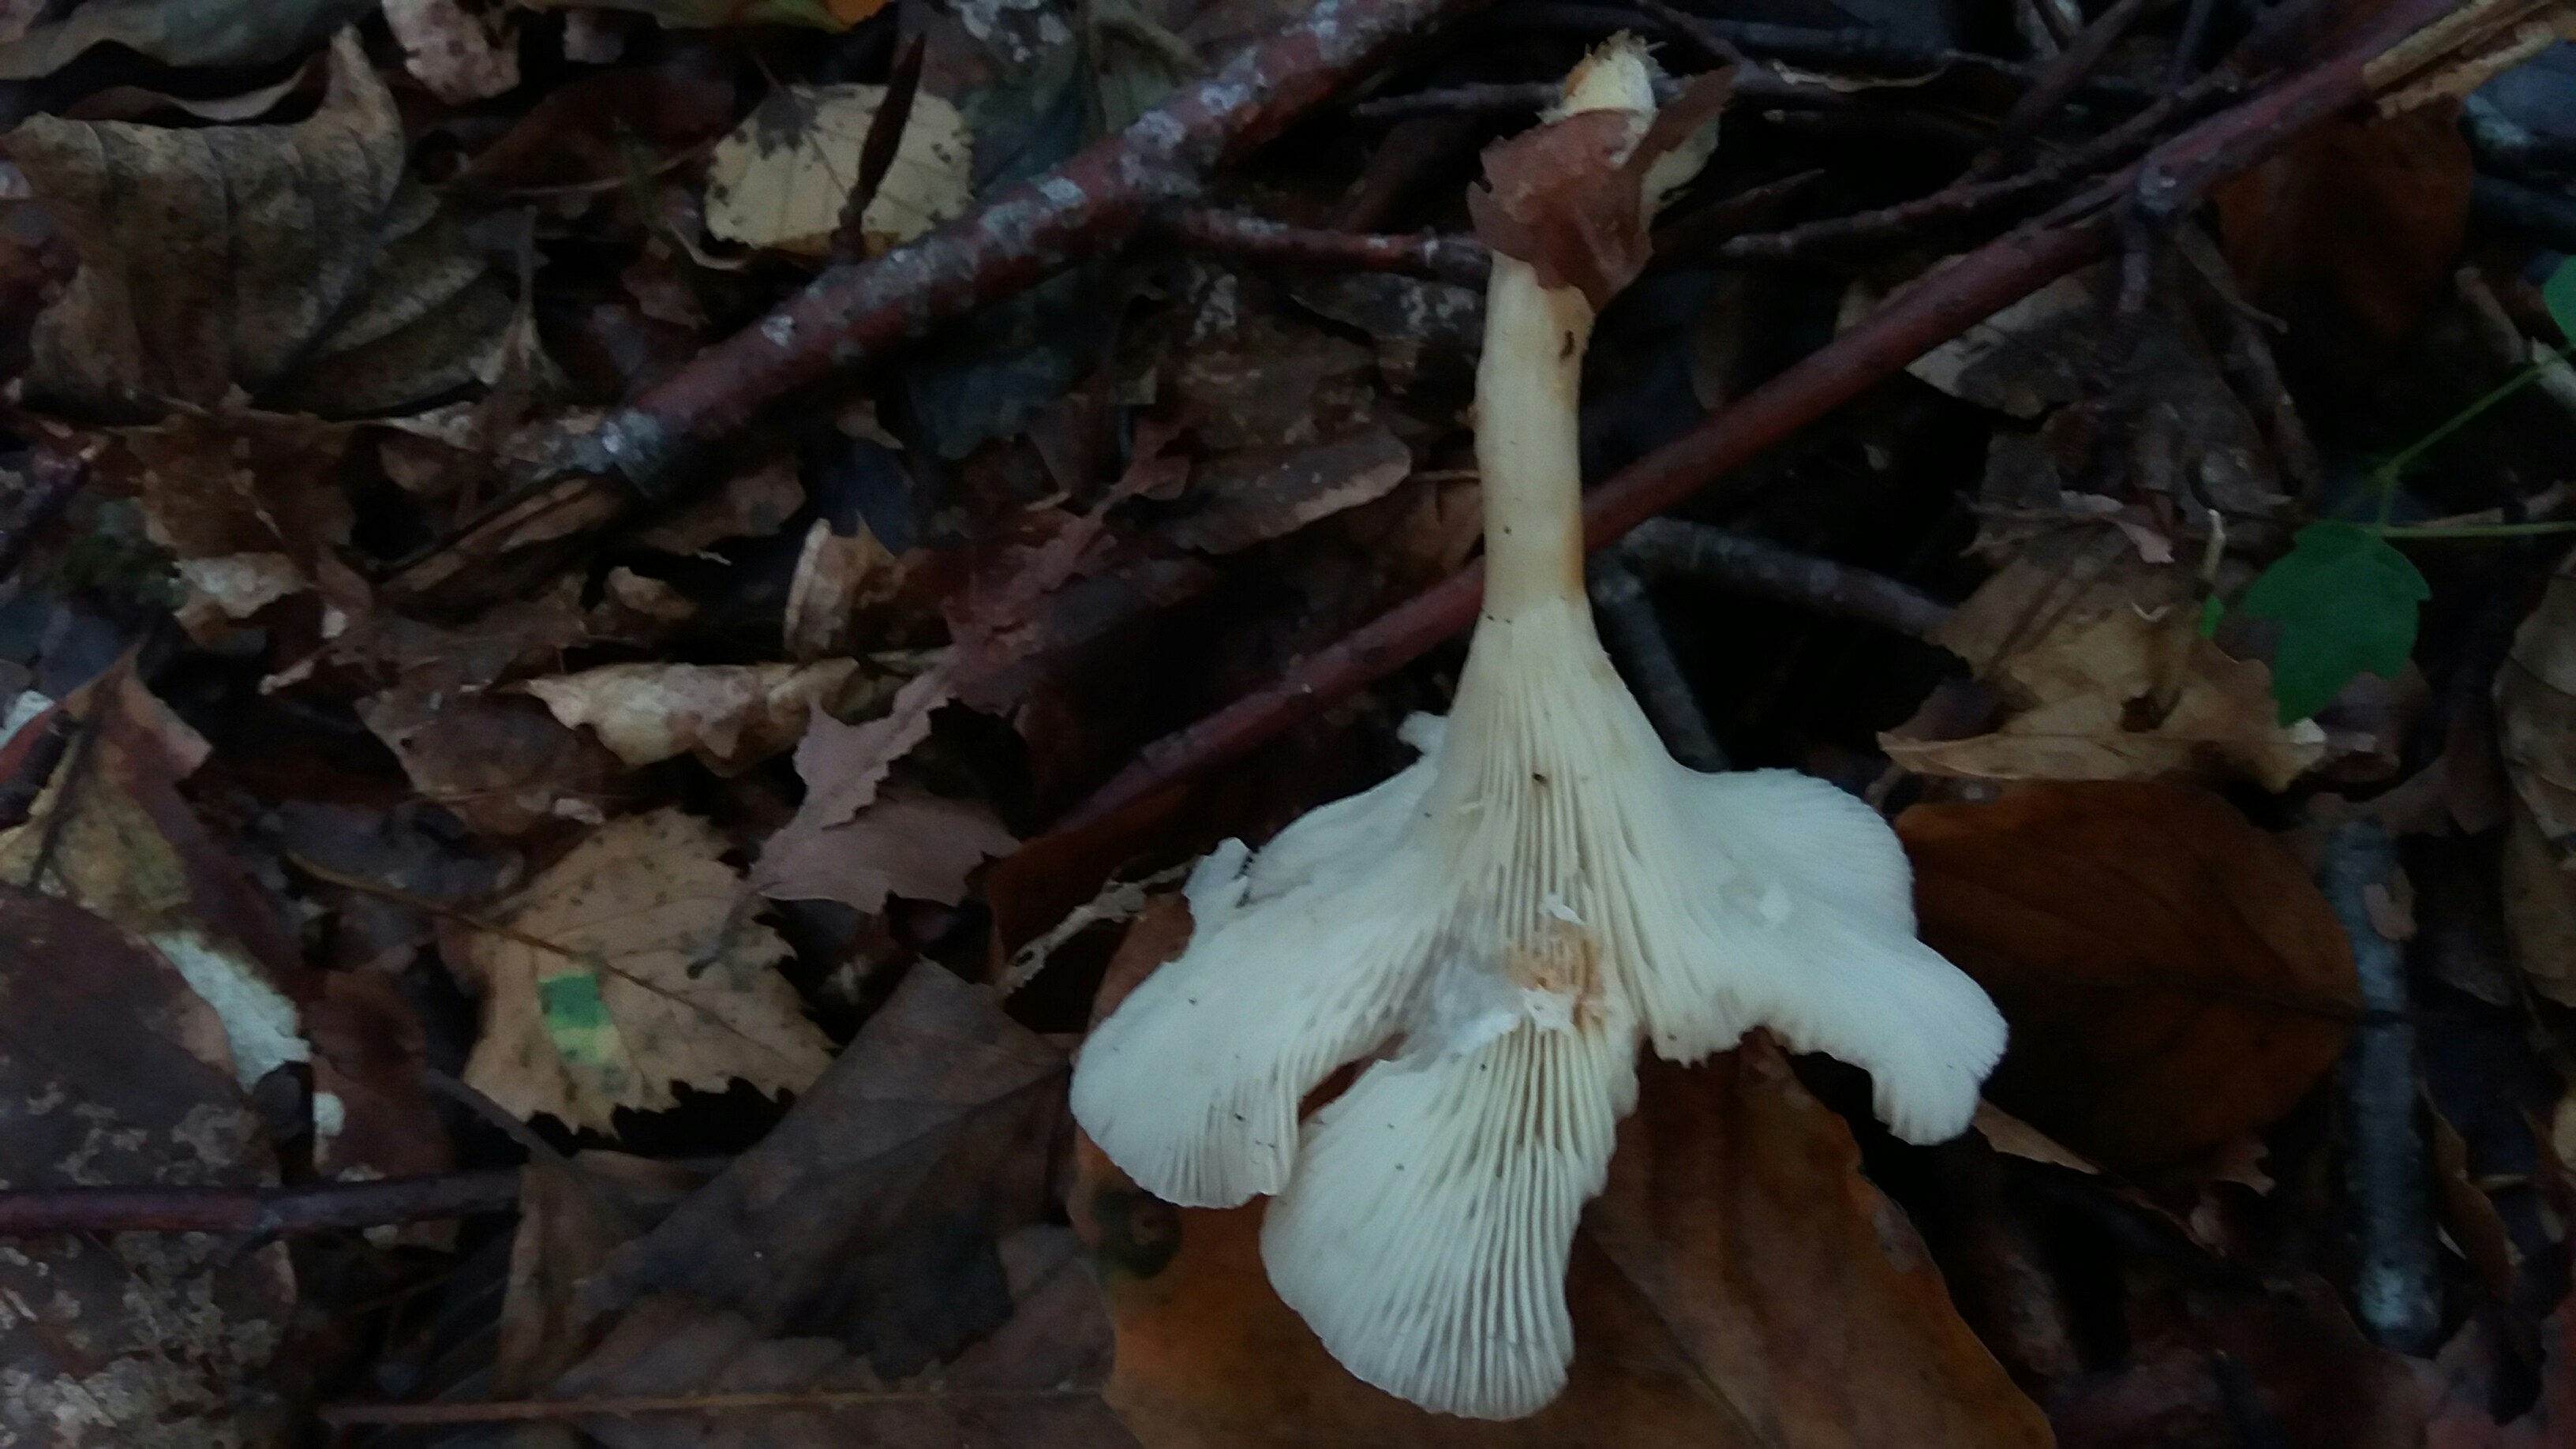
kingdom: Fungi
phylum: Basidiomycota
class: Agaricomycetes
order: Agaricales
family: Tricholomataceae
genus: Infundibulicybe
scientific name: Infundibulicybe gibba
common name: almindelig tragthat
